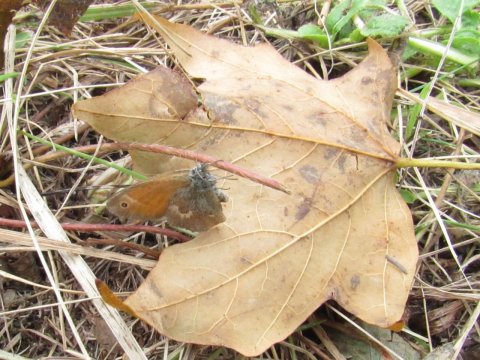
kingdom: Animalia
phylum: Arthropoda
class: Insecta
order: Lepidoptera
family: Nymphalidae
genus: Coenonympha
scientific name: Coenonympha tullia
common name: Large Heath
